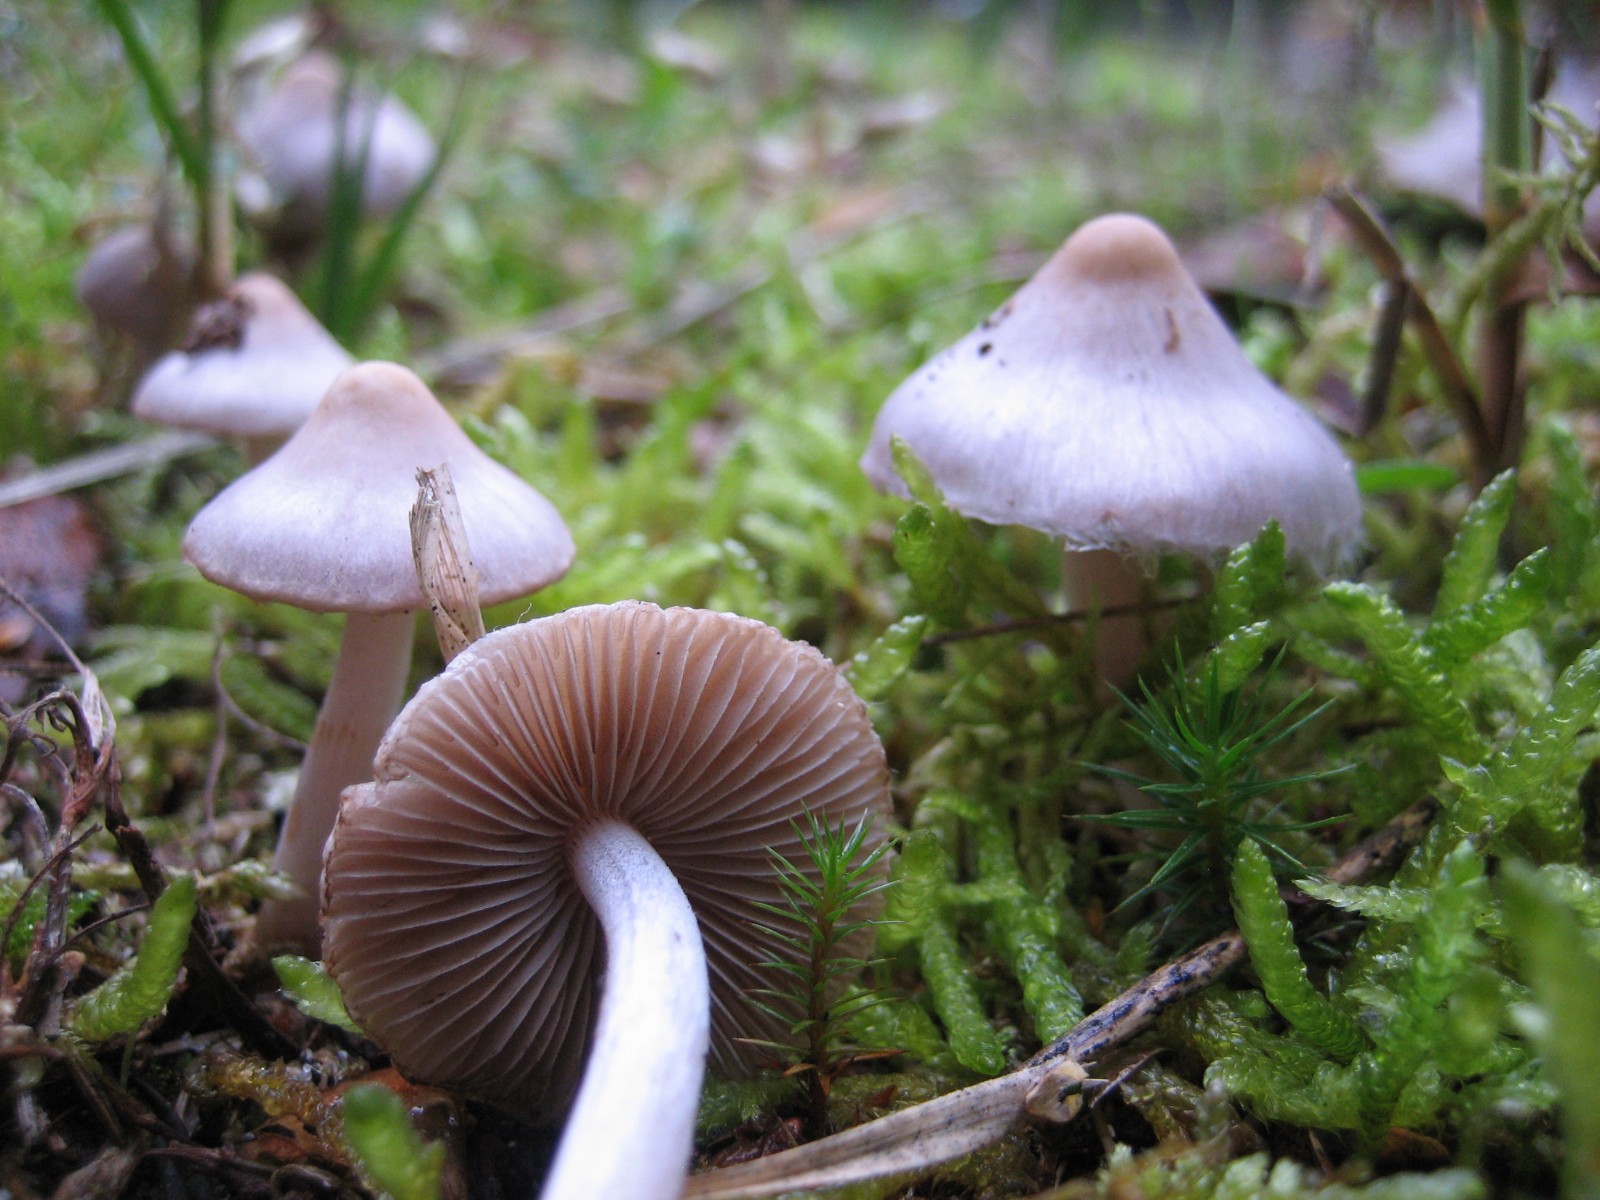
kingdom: Fungi
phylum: Basidiomycota
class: Agaricomycetes
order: Agaricales
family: Inocybaceae
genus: Inocybe
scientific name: Inocybe geophylla
